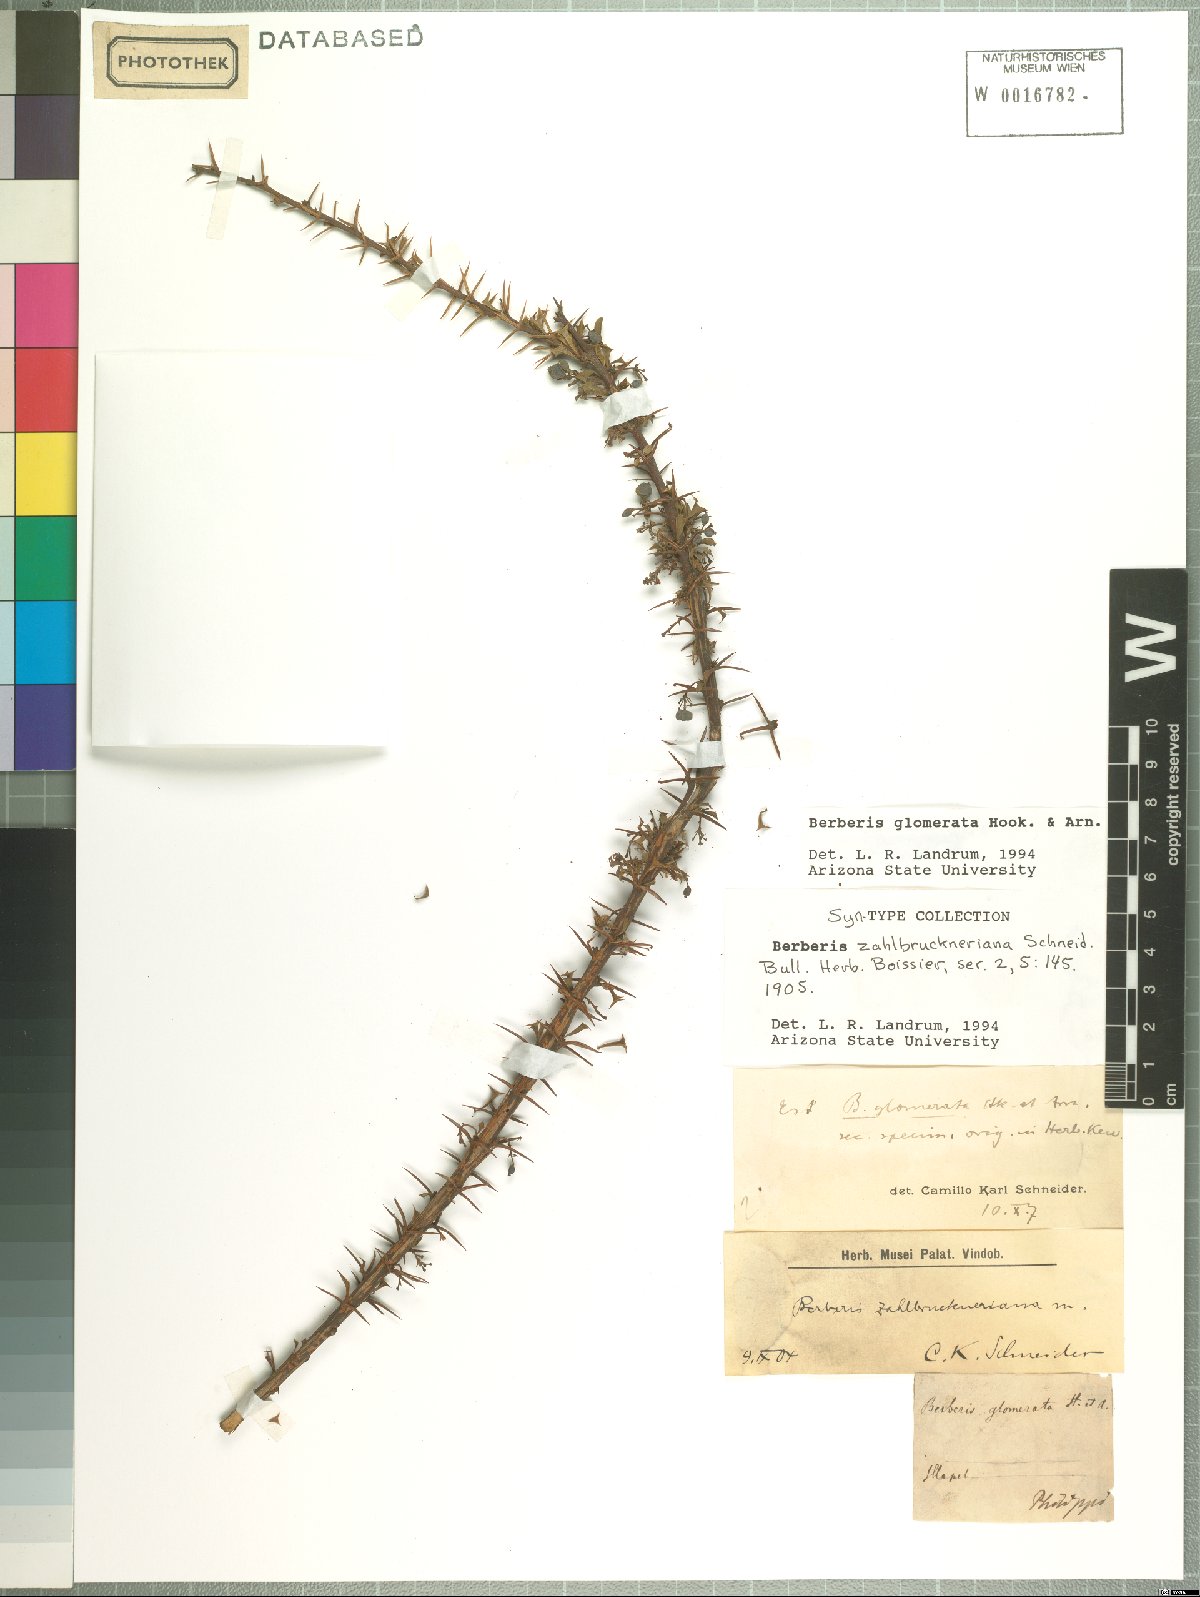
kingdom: Plantae
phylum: Tracheophyta
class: Magnoliopsida
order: Ranunculales
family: Berberidaceae
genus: Berberis
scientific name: Berberis glomerata
